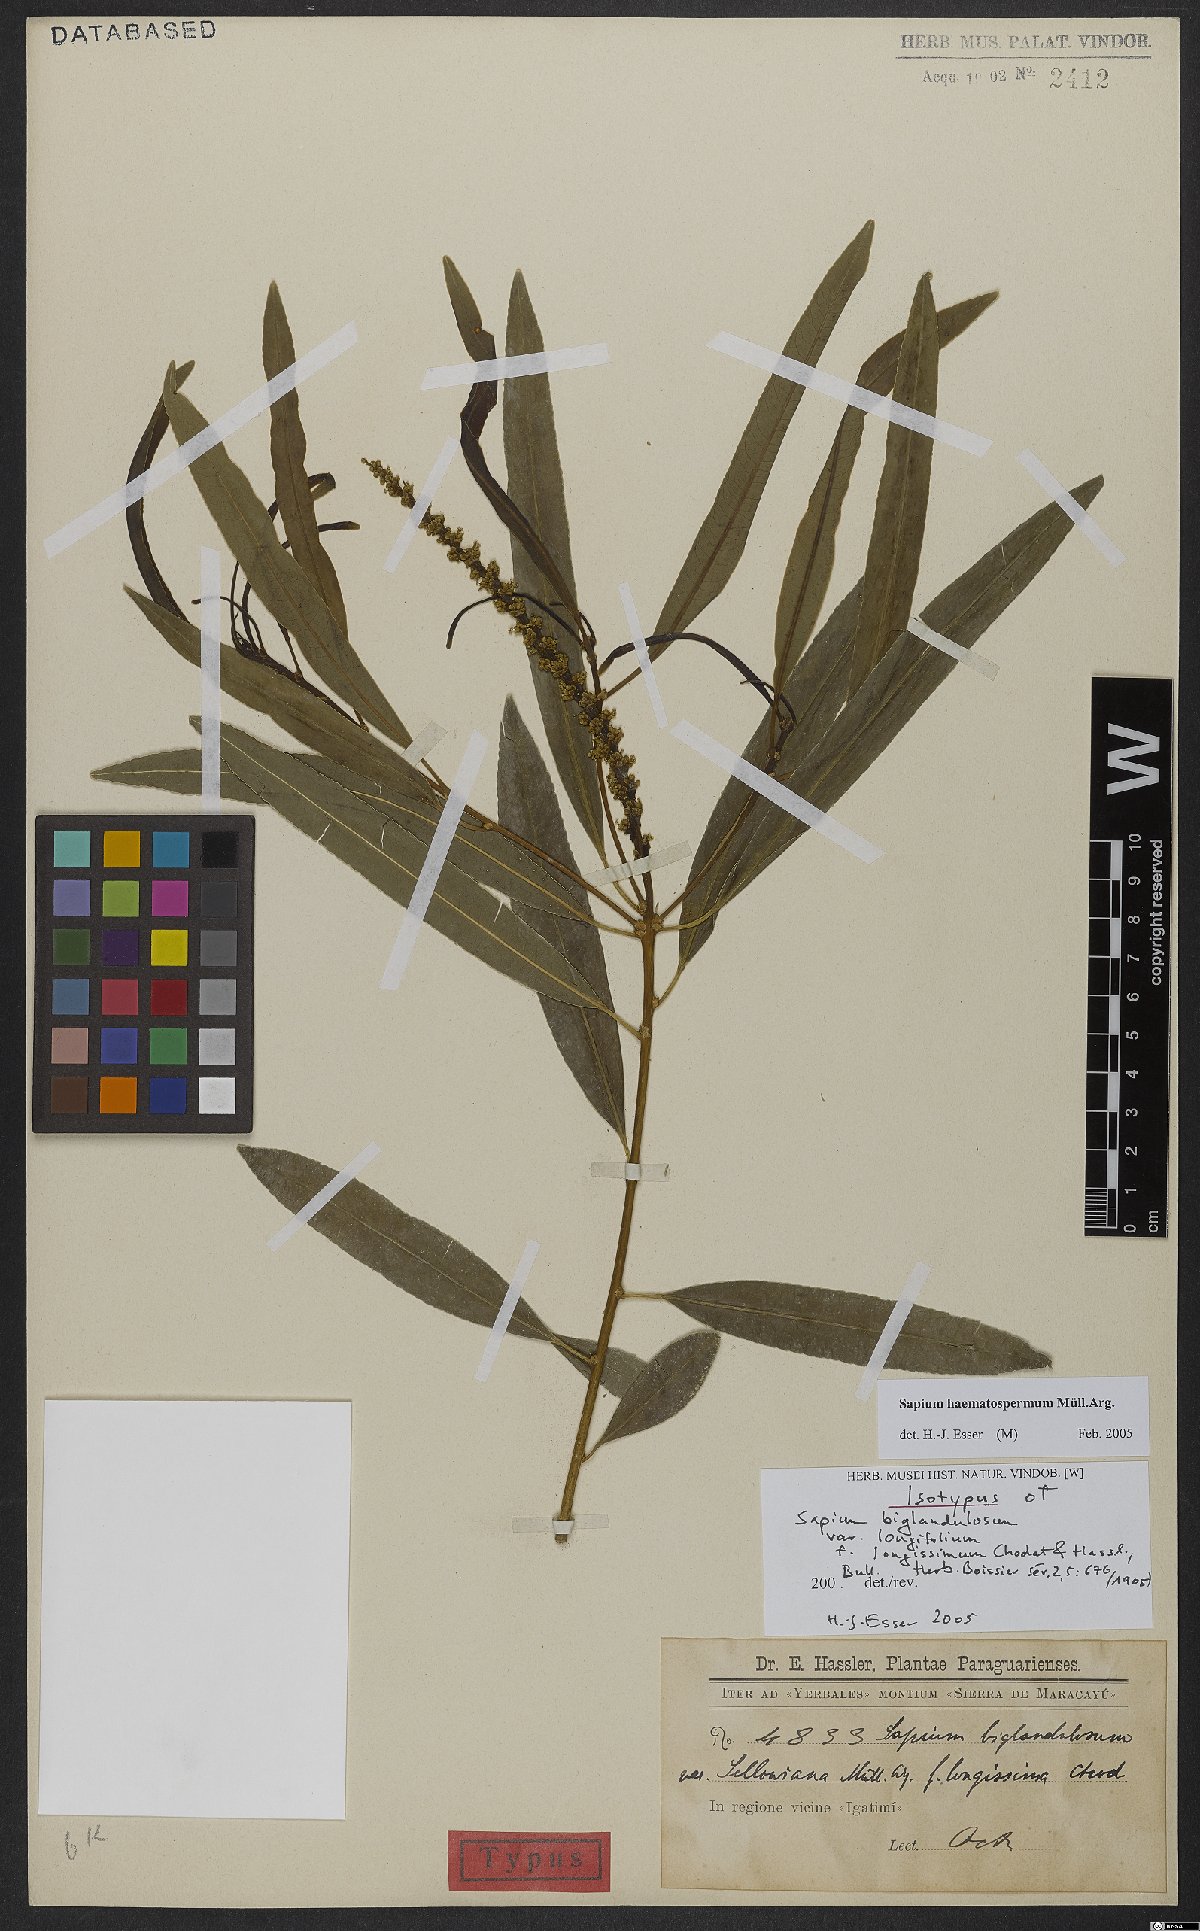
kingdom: Plantae
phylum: Tracheophyta
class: Magnoliopsida
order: Malpighiales
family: Euphorbiaceae
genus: Sapium
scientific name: Sapium haematospermum
